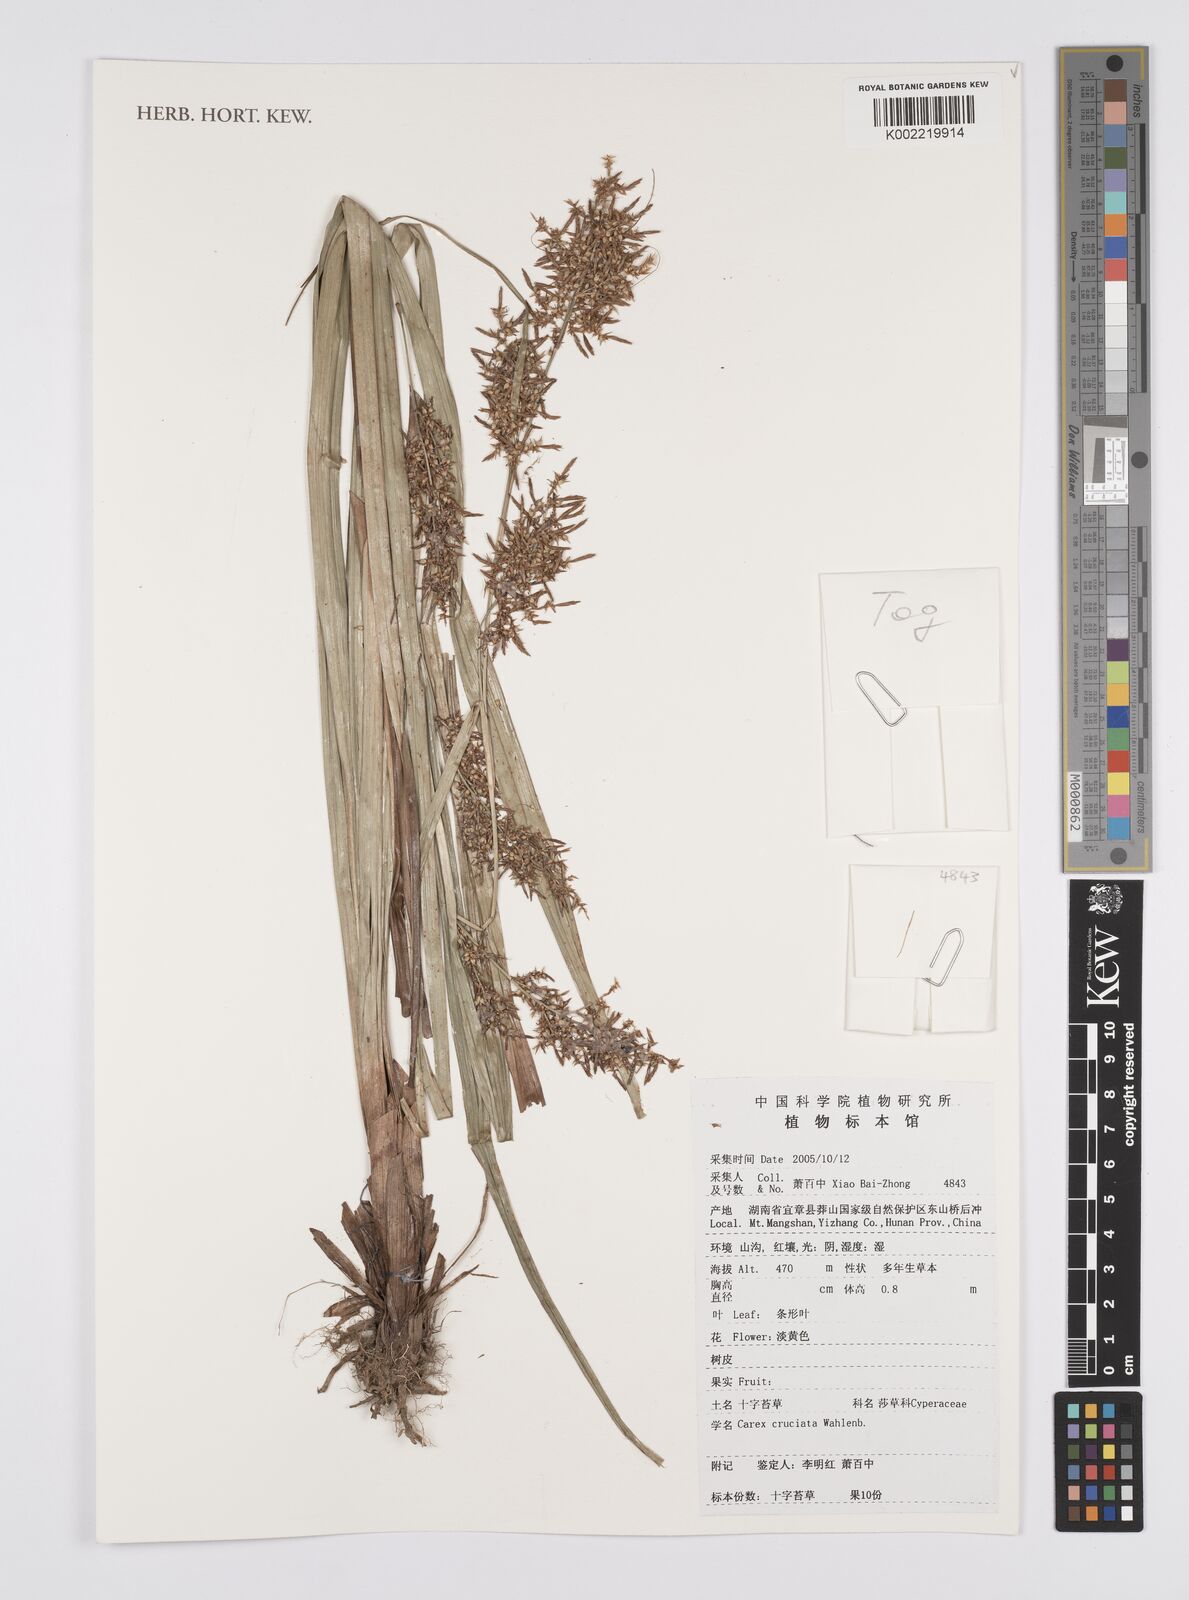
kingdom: Plantae
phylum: Tracheophyta
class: Liliopsida
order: Poales
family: Cyperaceae
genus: Carex
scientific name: Carex cruciata
